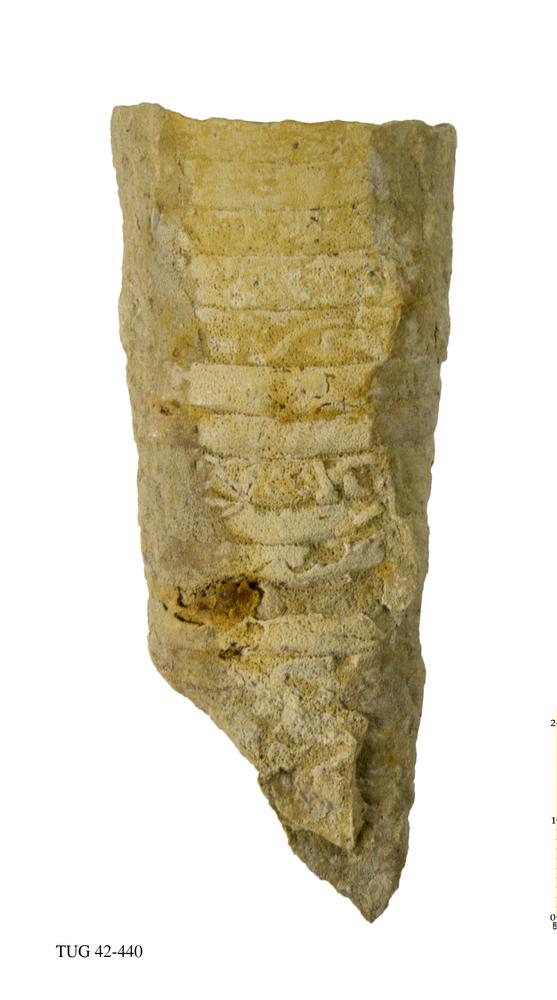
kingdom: Animalia
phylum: Mollusca
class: Cephalopoda
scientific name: Cephalopoda
